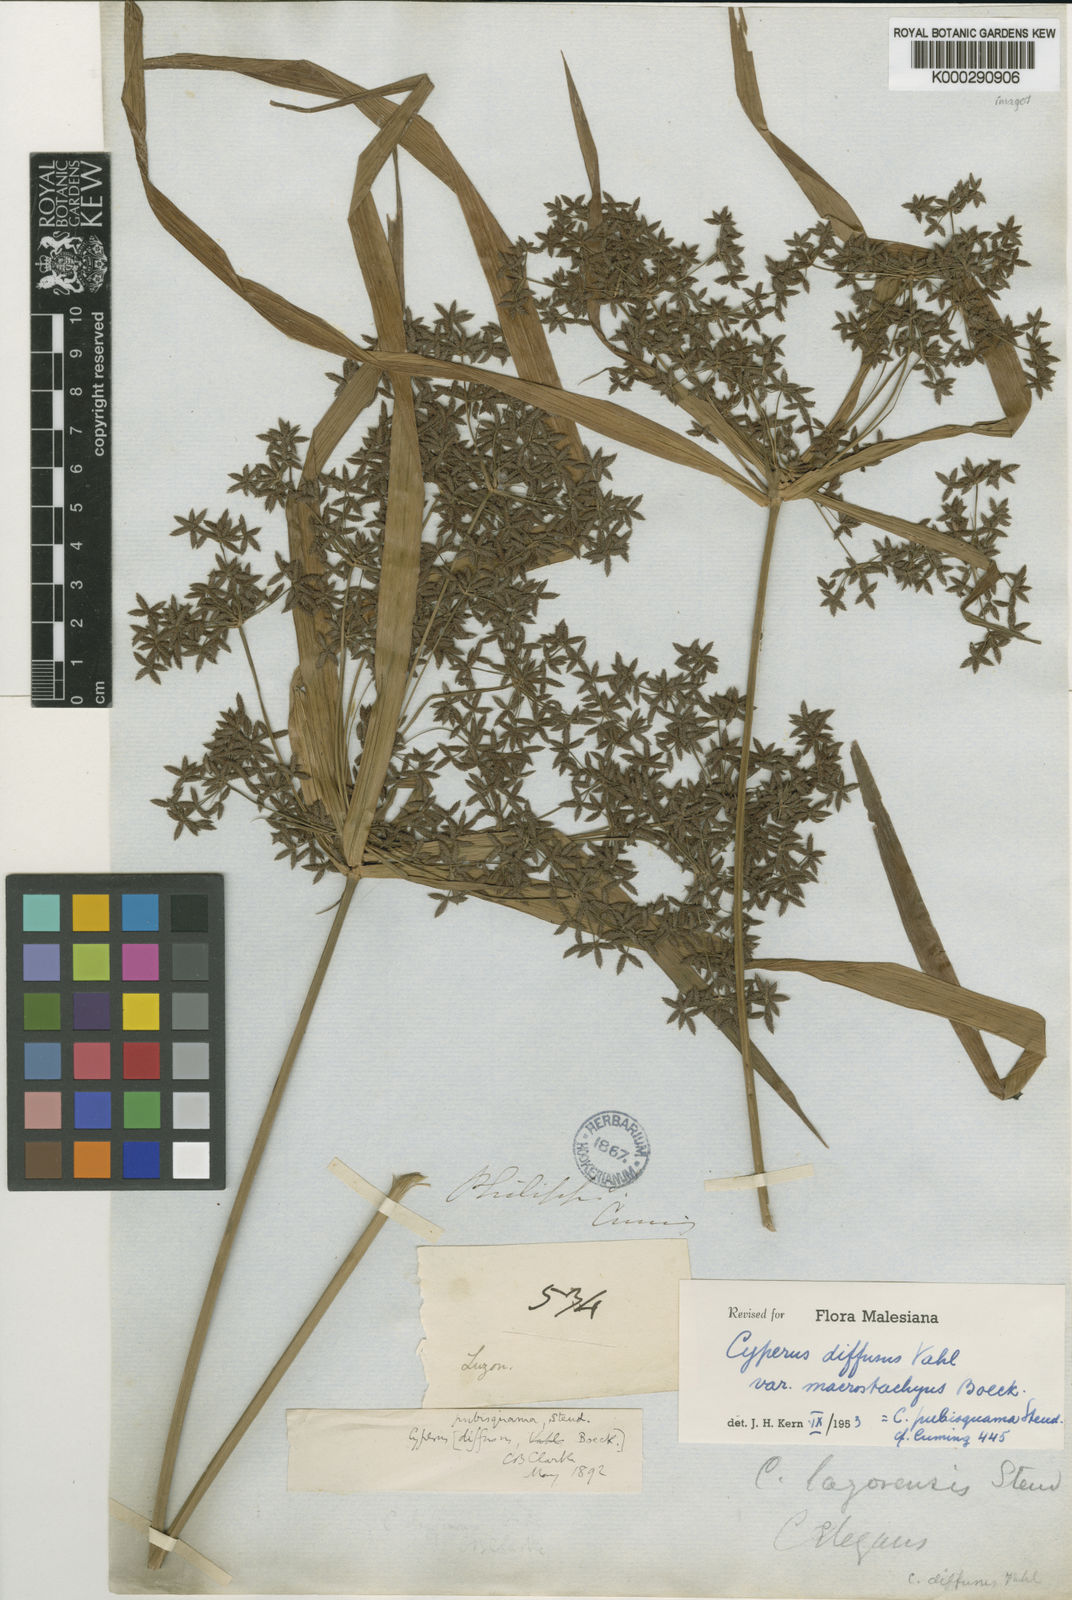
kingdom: Plantae
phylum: Tracheophyta
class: Liliopsida
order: Poales
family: Cyperaceae
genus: Cyperus
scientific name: Cyperus
